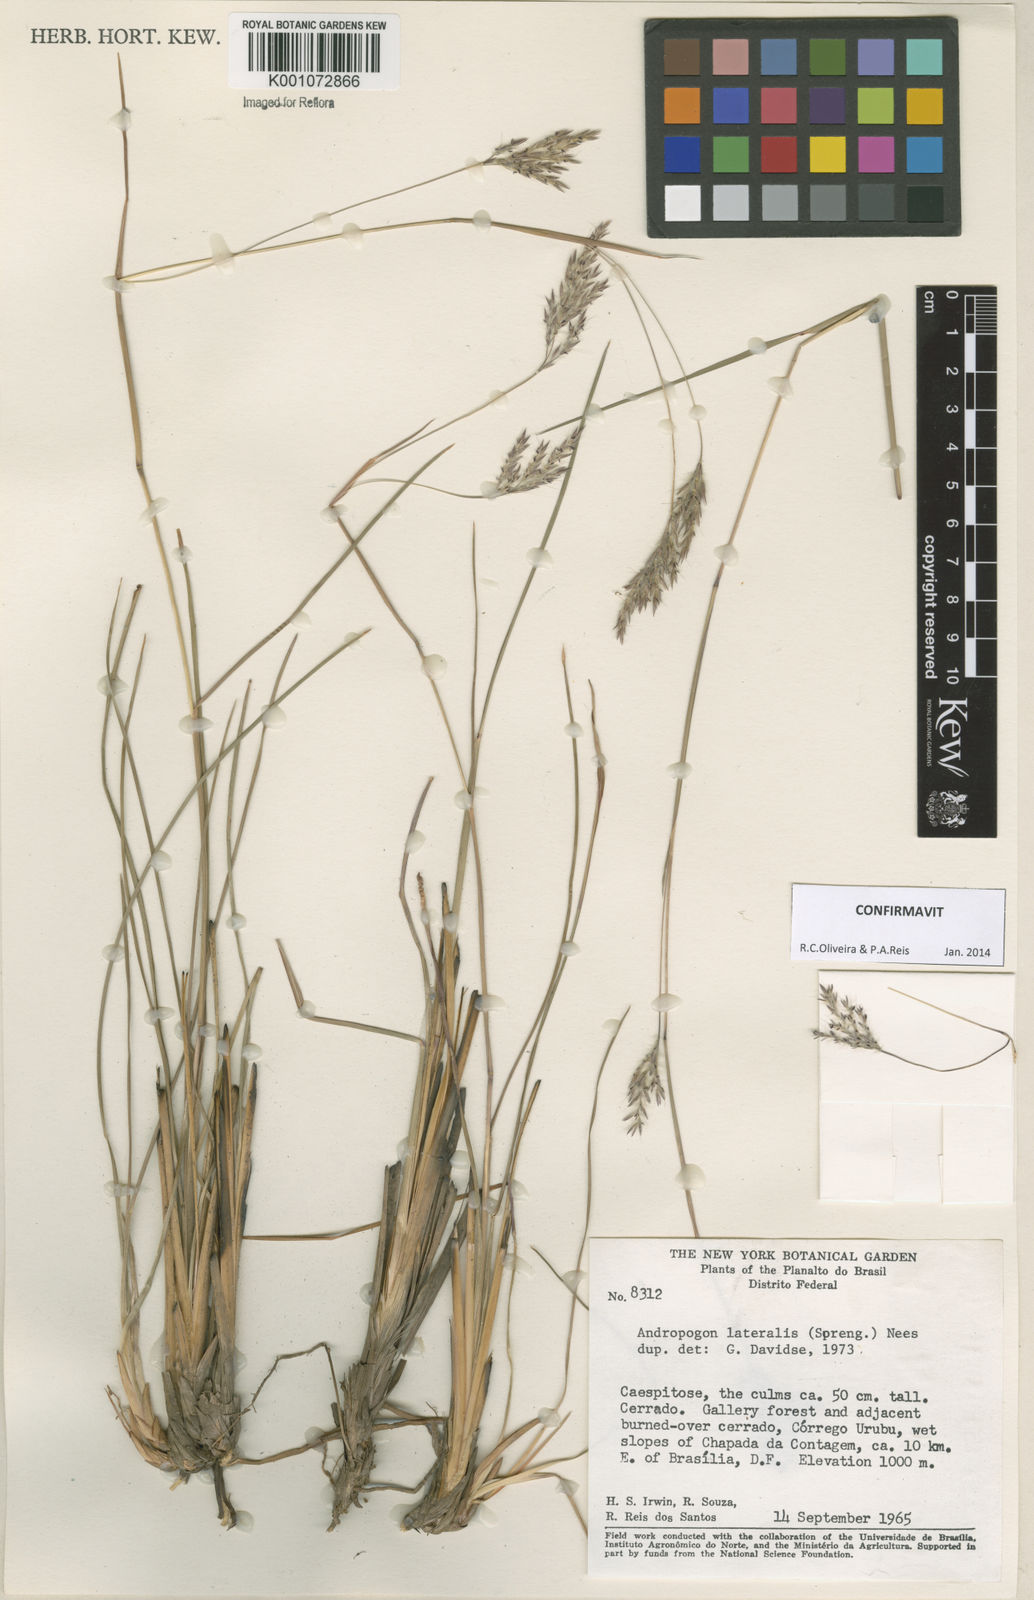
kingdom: Plantae
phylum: Tracheophyta
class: Liliopsida
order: Poales
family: Poaceae
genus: Andropogon
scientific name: Andropogon lateralis
